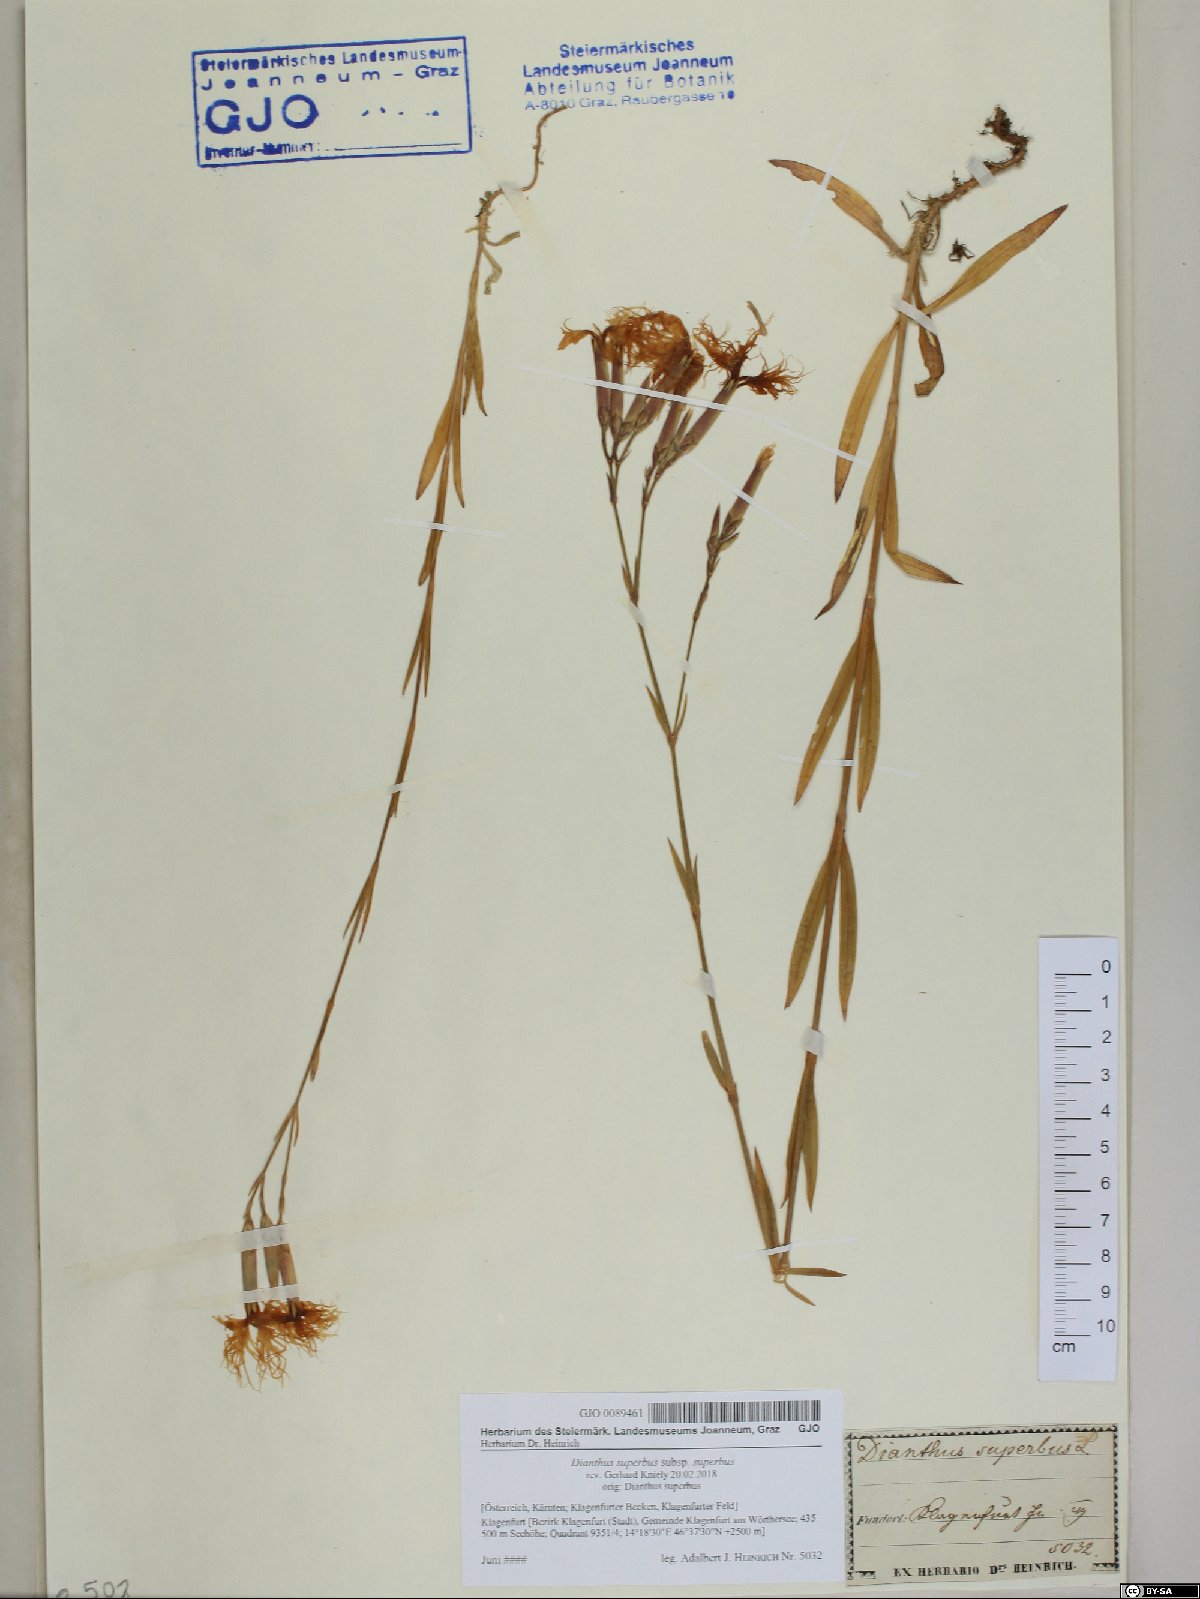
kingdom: Plantae
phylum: Tracheophyta
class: Magnoliopsida
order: Caryophyllales
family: Caryophyllaceae
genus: Dianthus
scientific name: Dianthus superbus
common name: Fringed pink
